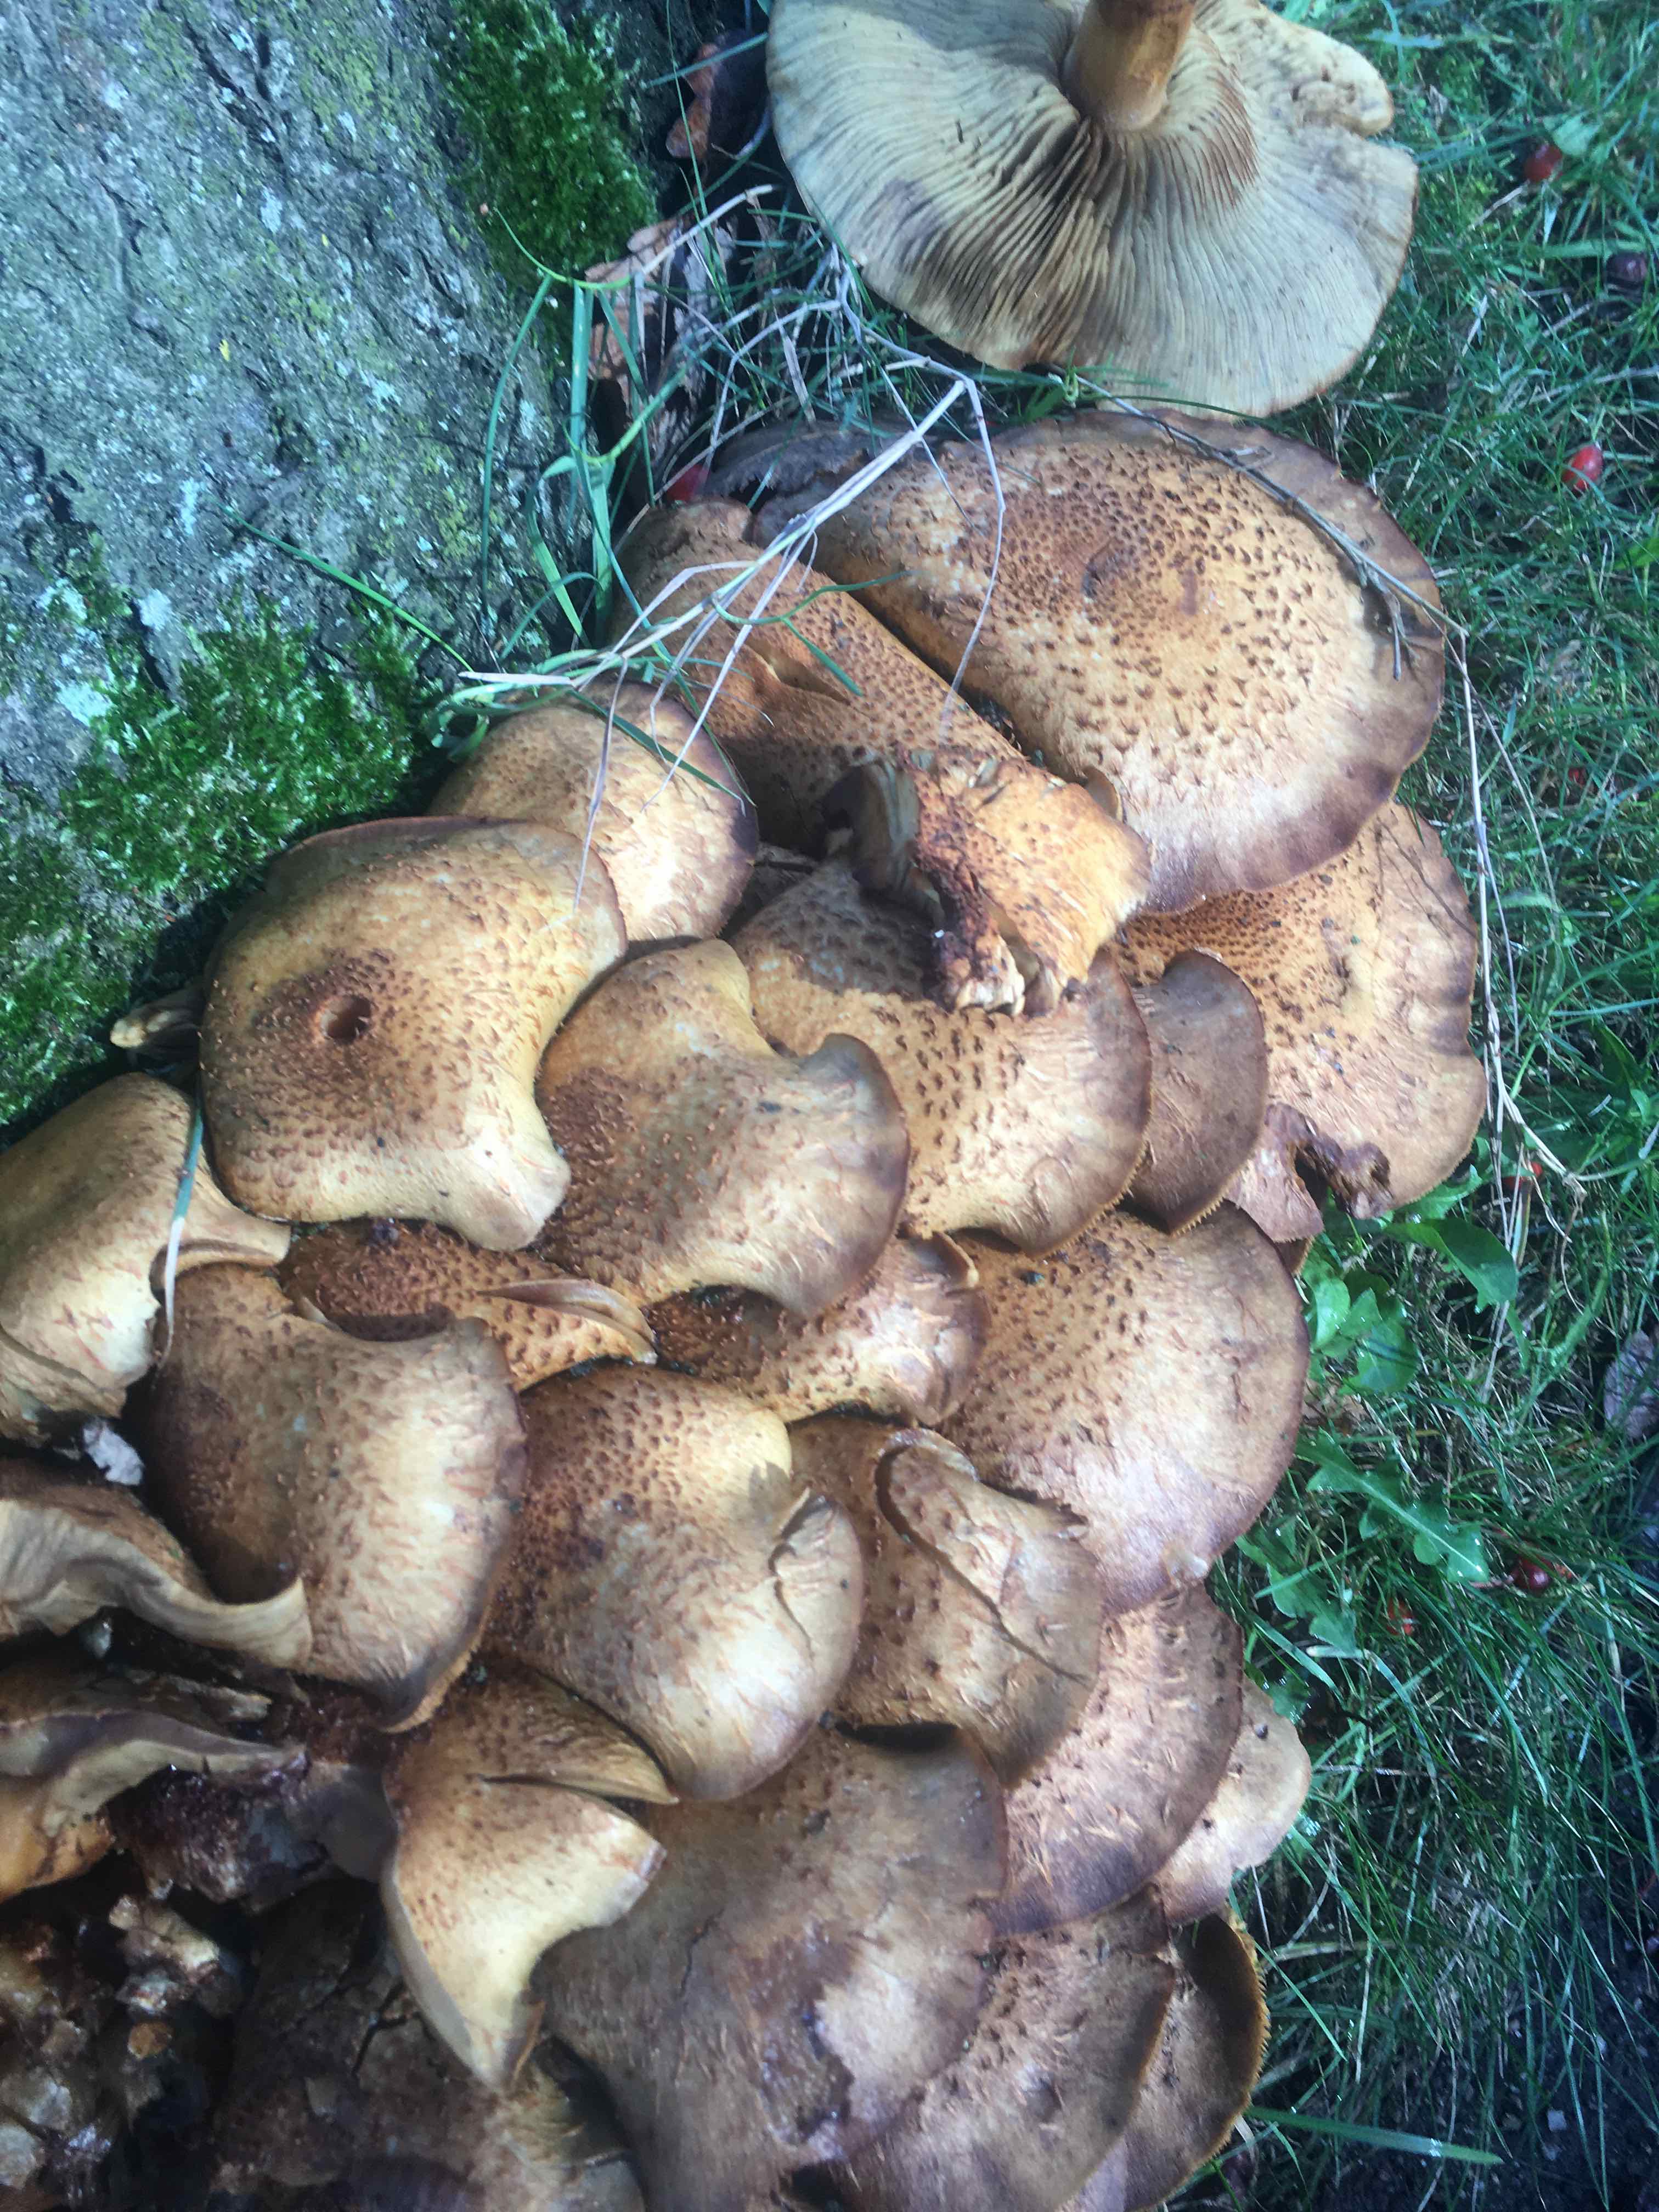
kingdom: Fungi
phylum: Basidiomycota
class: Agaricomycetes
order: Agaricales
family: Strophariaceae
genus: Pholiota
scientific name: Pholiota squarrosa
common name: krumskællet skælhat
